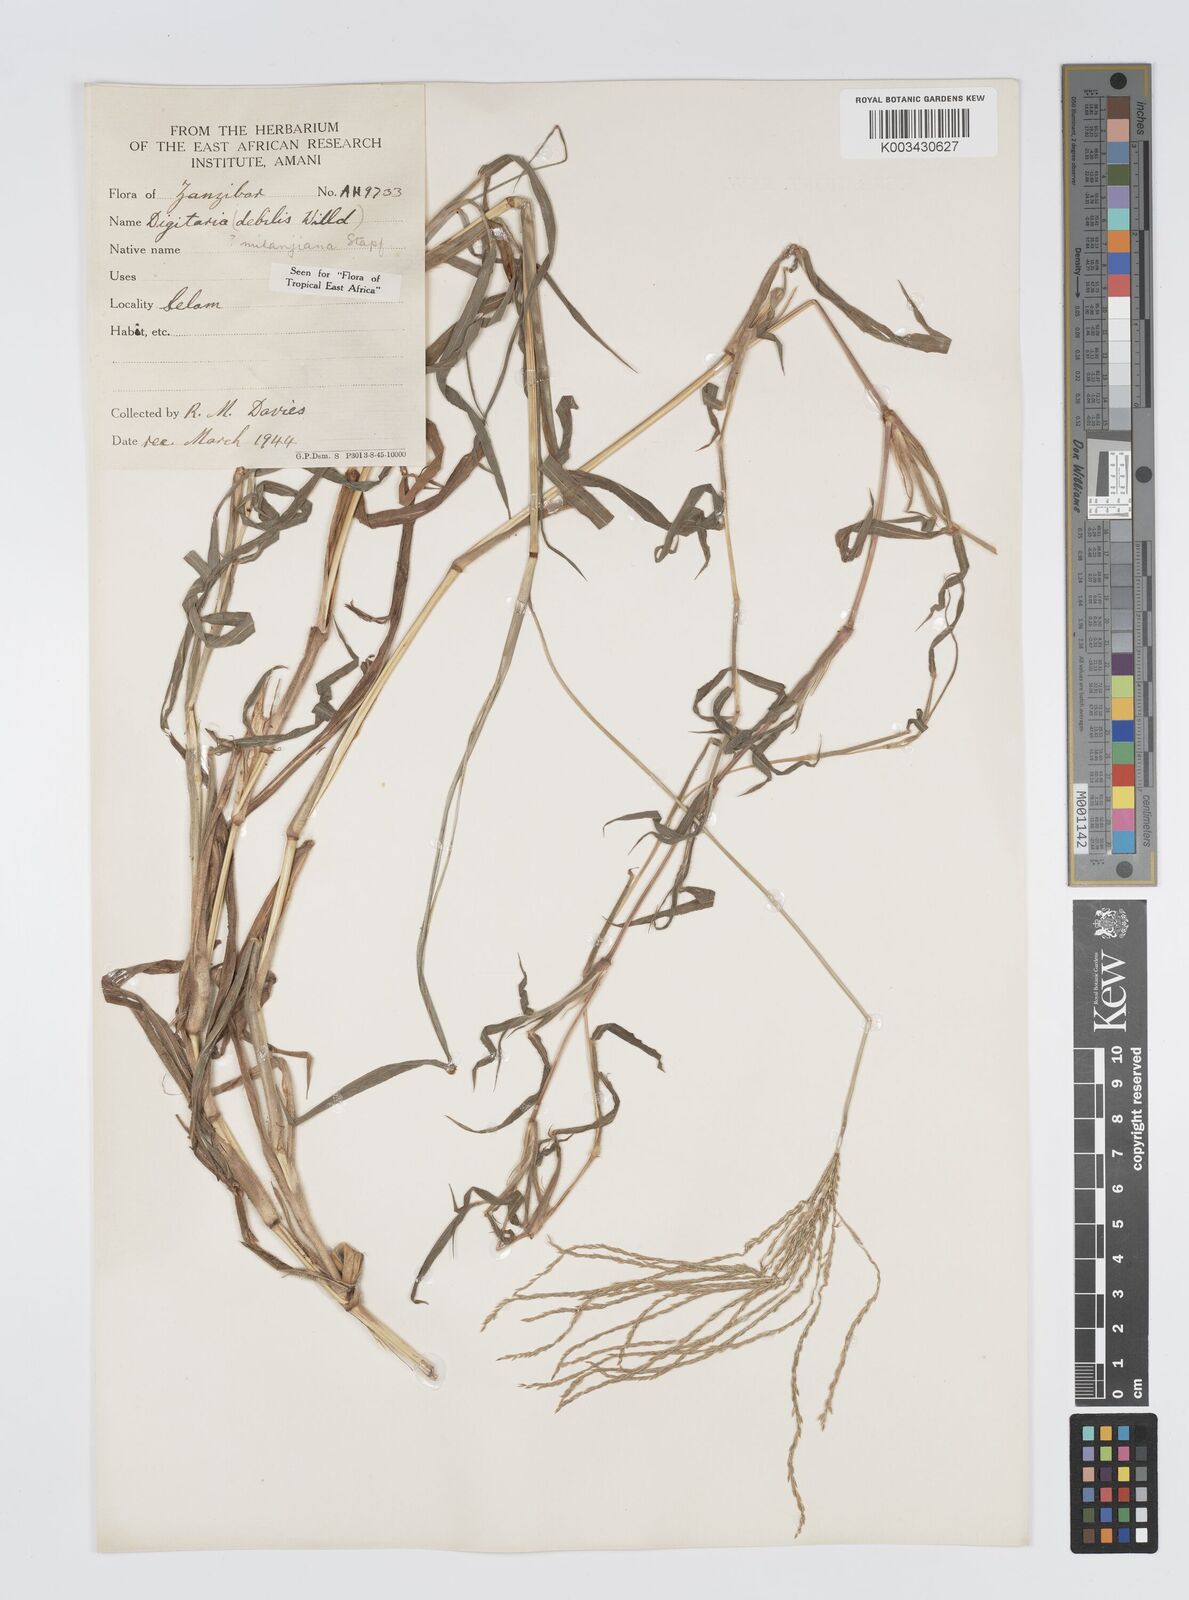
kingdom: Plantae
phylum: Tracheophyta
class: Liliopsida
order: Poales
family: Poaceae
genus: Digitaria
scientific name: Digitaria milanjiana
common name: Madagascar crabgrass
